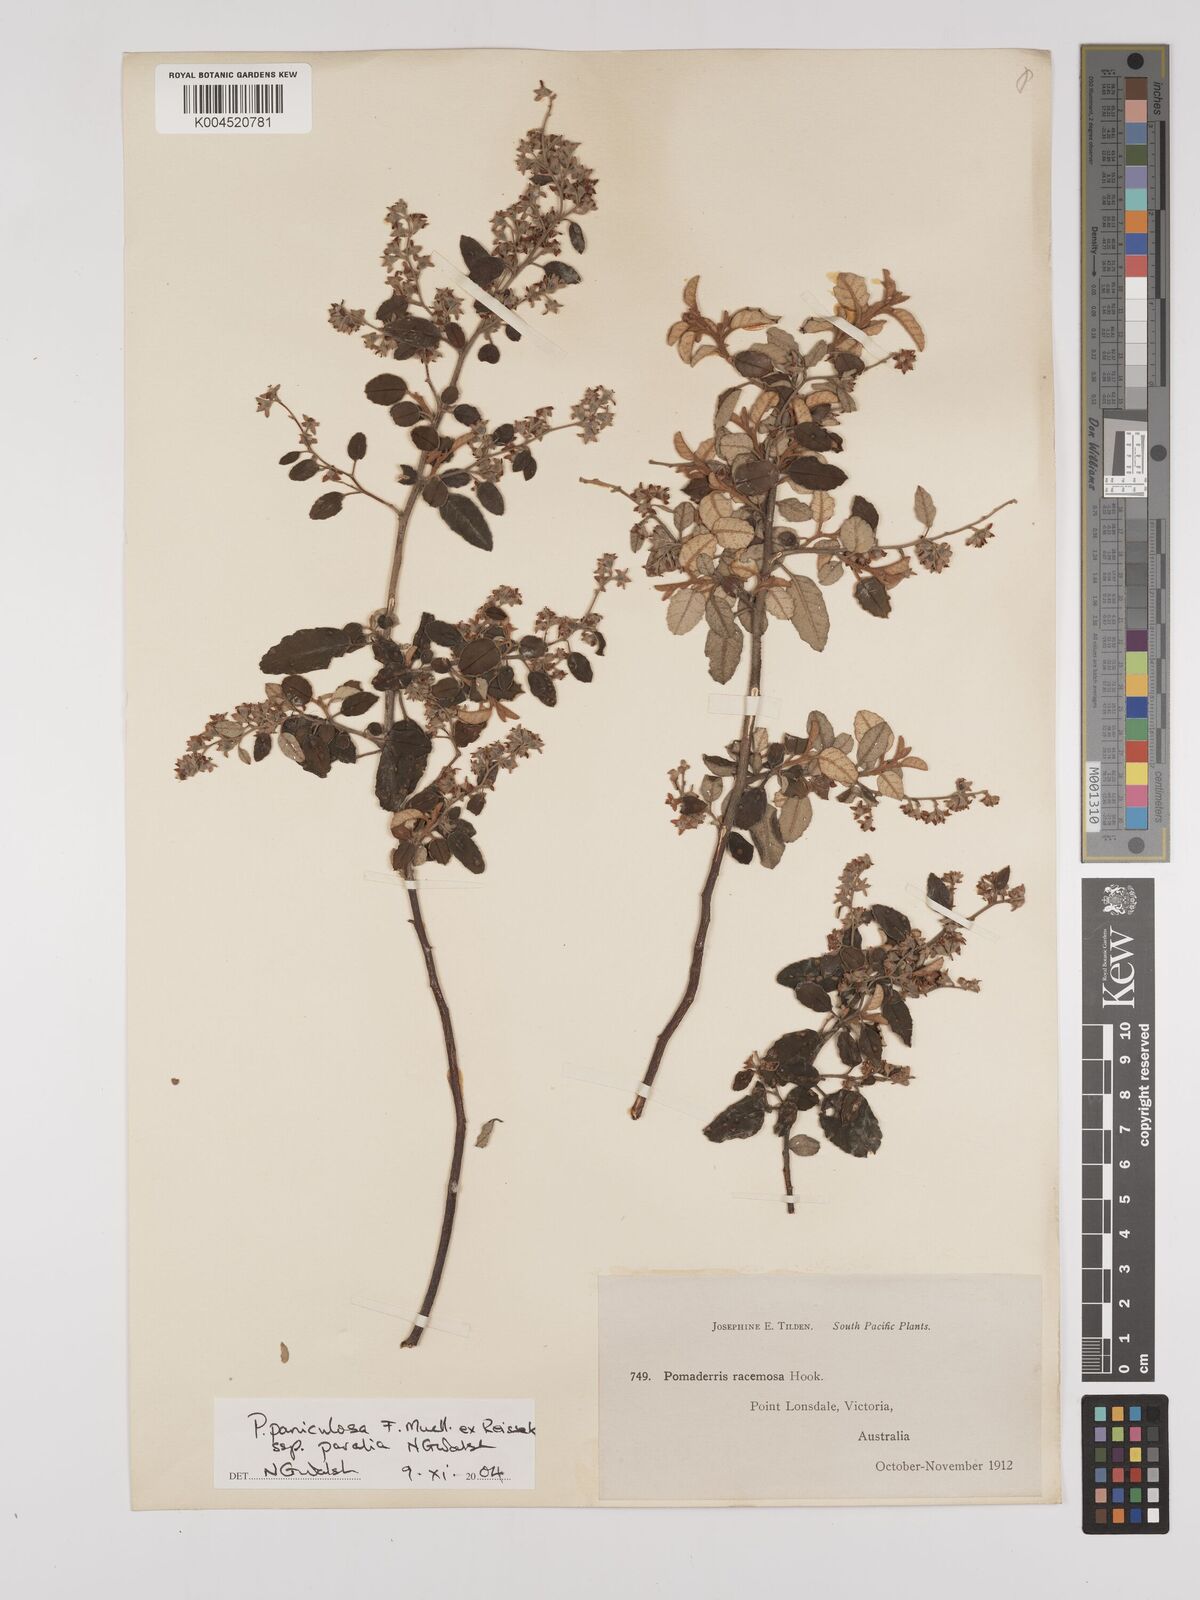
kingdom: Plantae
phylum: Tracheophyta
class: Magnoliopsida
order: Rosales
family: Rhamnaceae
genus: Pomaderris
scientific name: Pomaderris paniculosa
